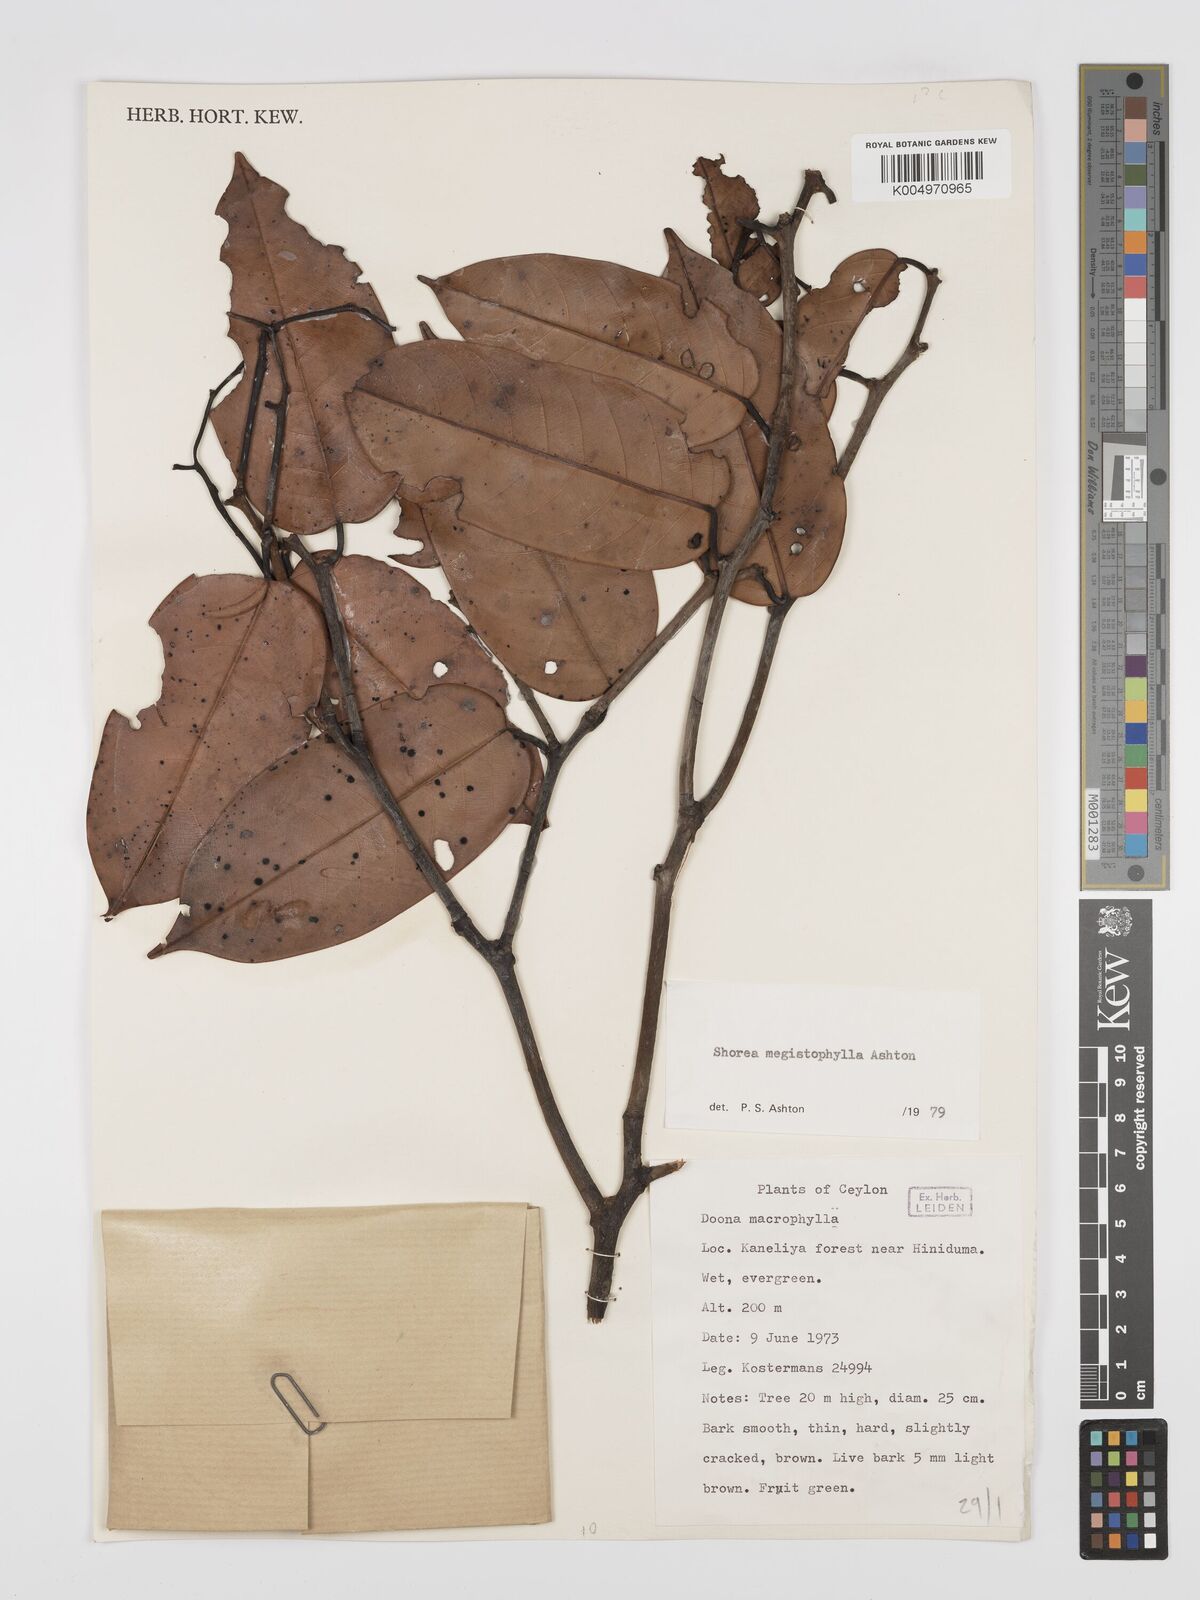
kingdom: Plantae
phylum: Tracheophyta
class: Magnoliopsida
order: Malvales
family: Dipterocarpaceae
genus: Doona
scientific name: Doona macrophylla
